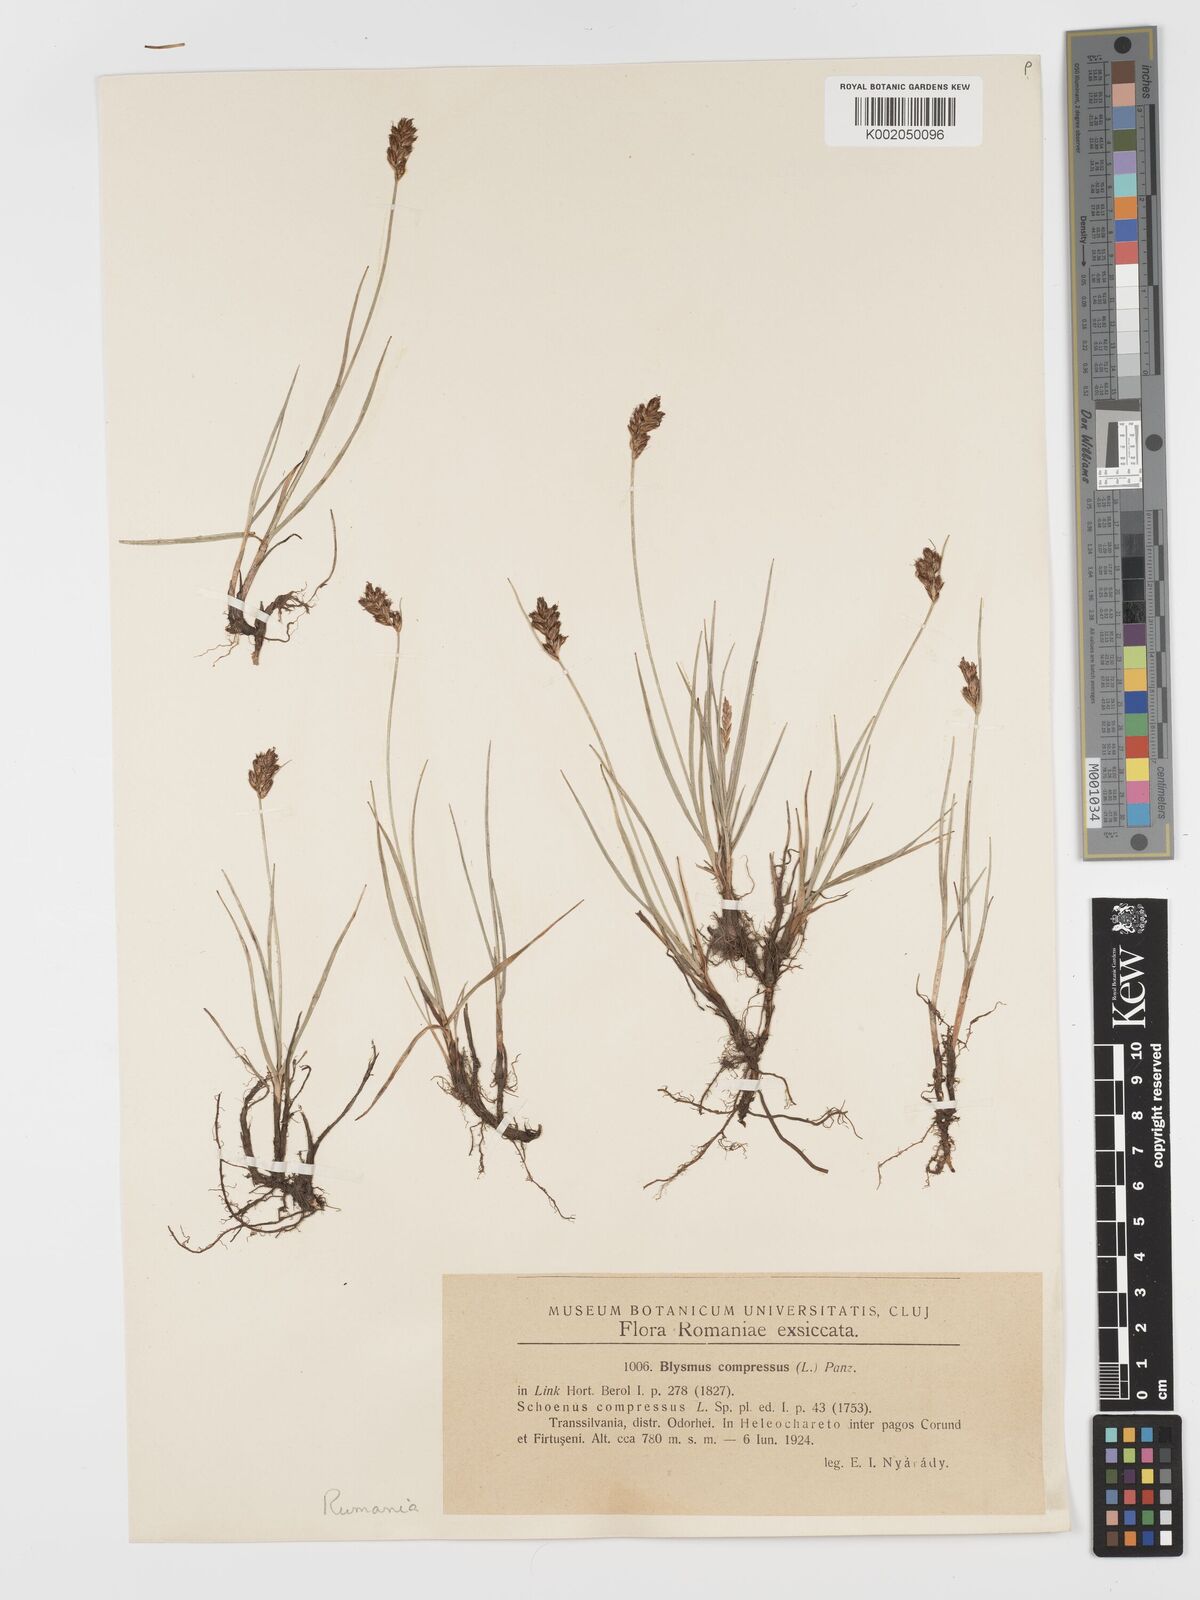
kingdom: Plantae
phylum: Tracheophyta
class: Liliopsida
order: Poales
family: Cyperaceae
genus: Blysmus
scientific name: Blysmus compressus
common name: Flat-sedge
